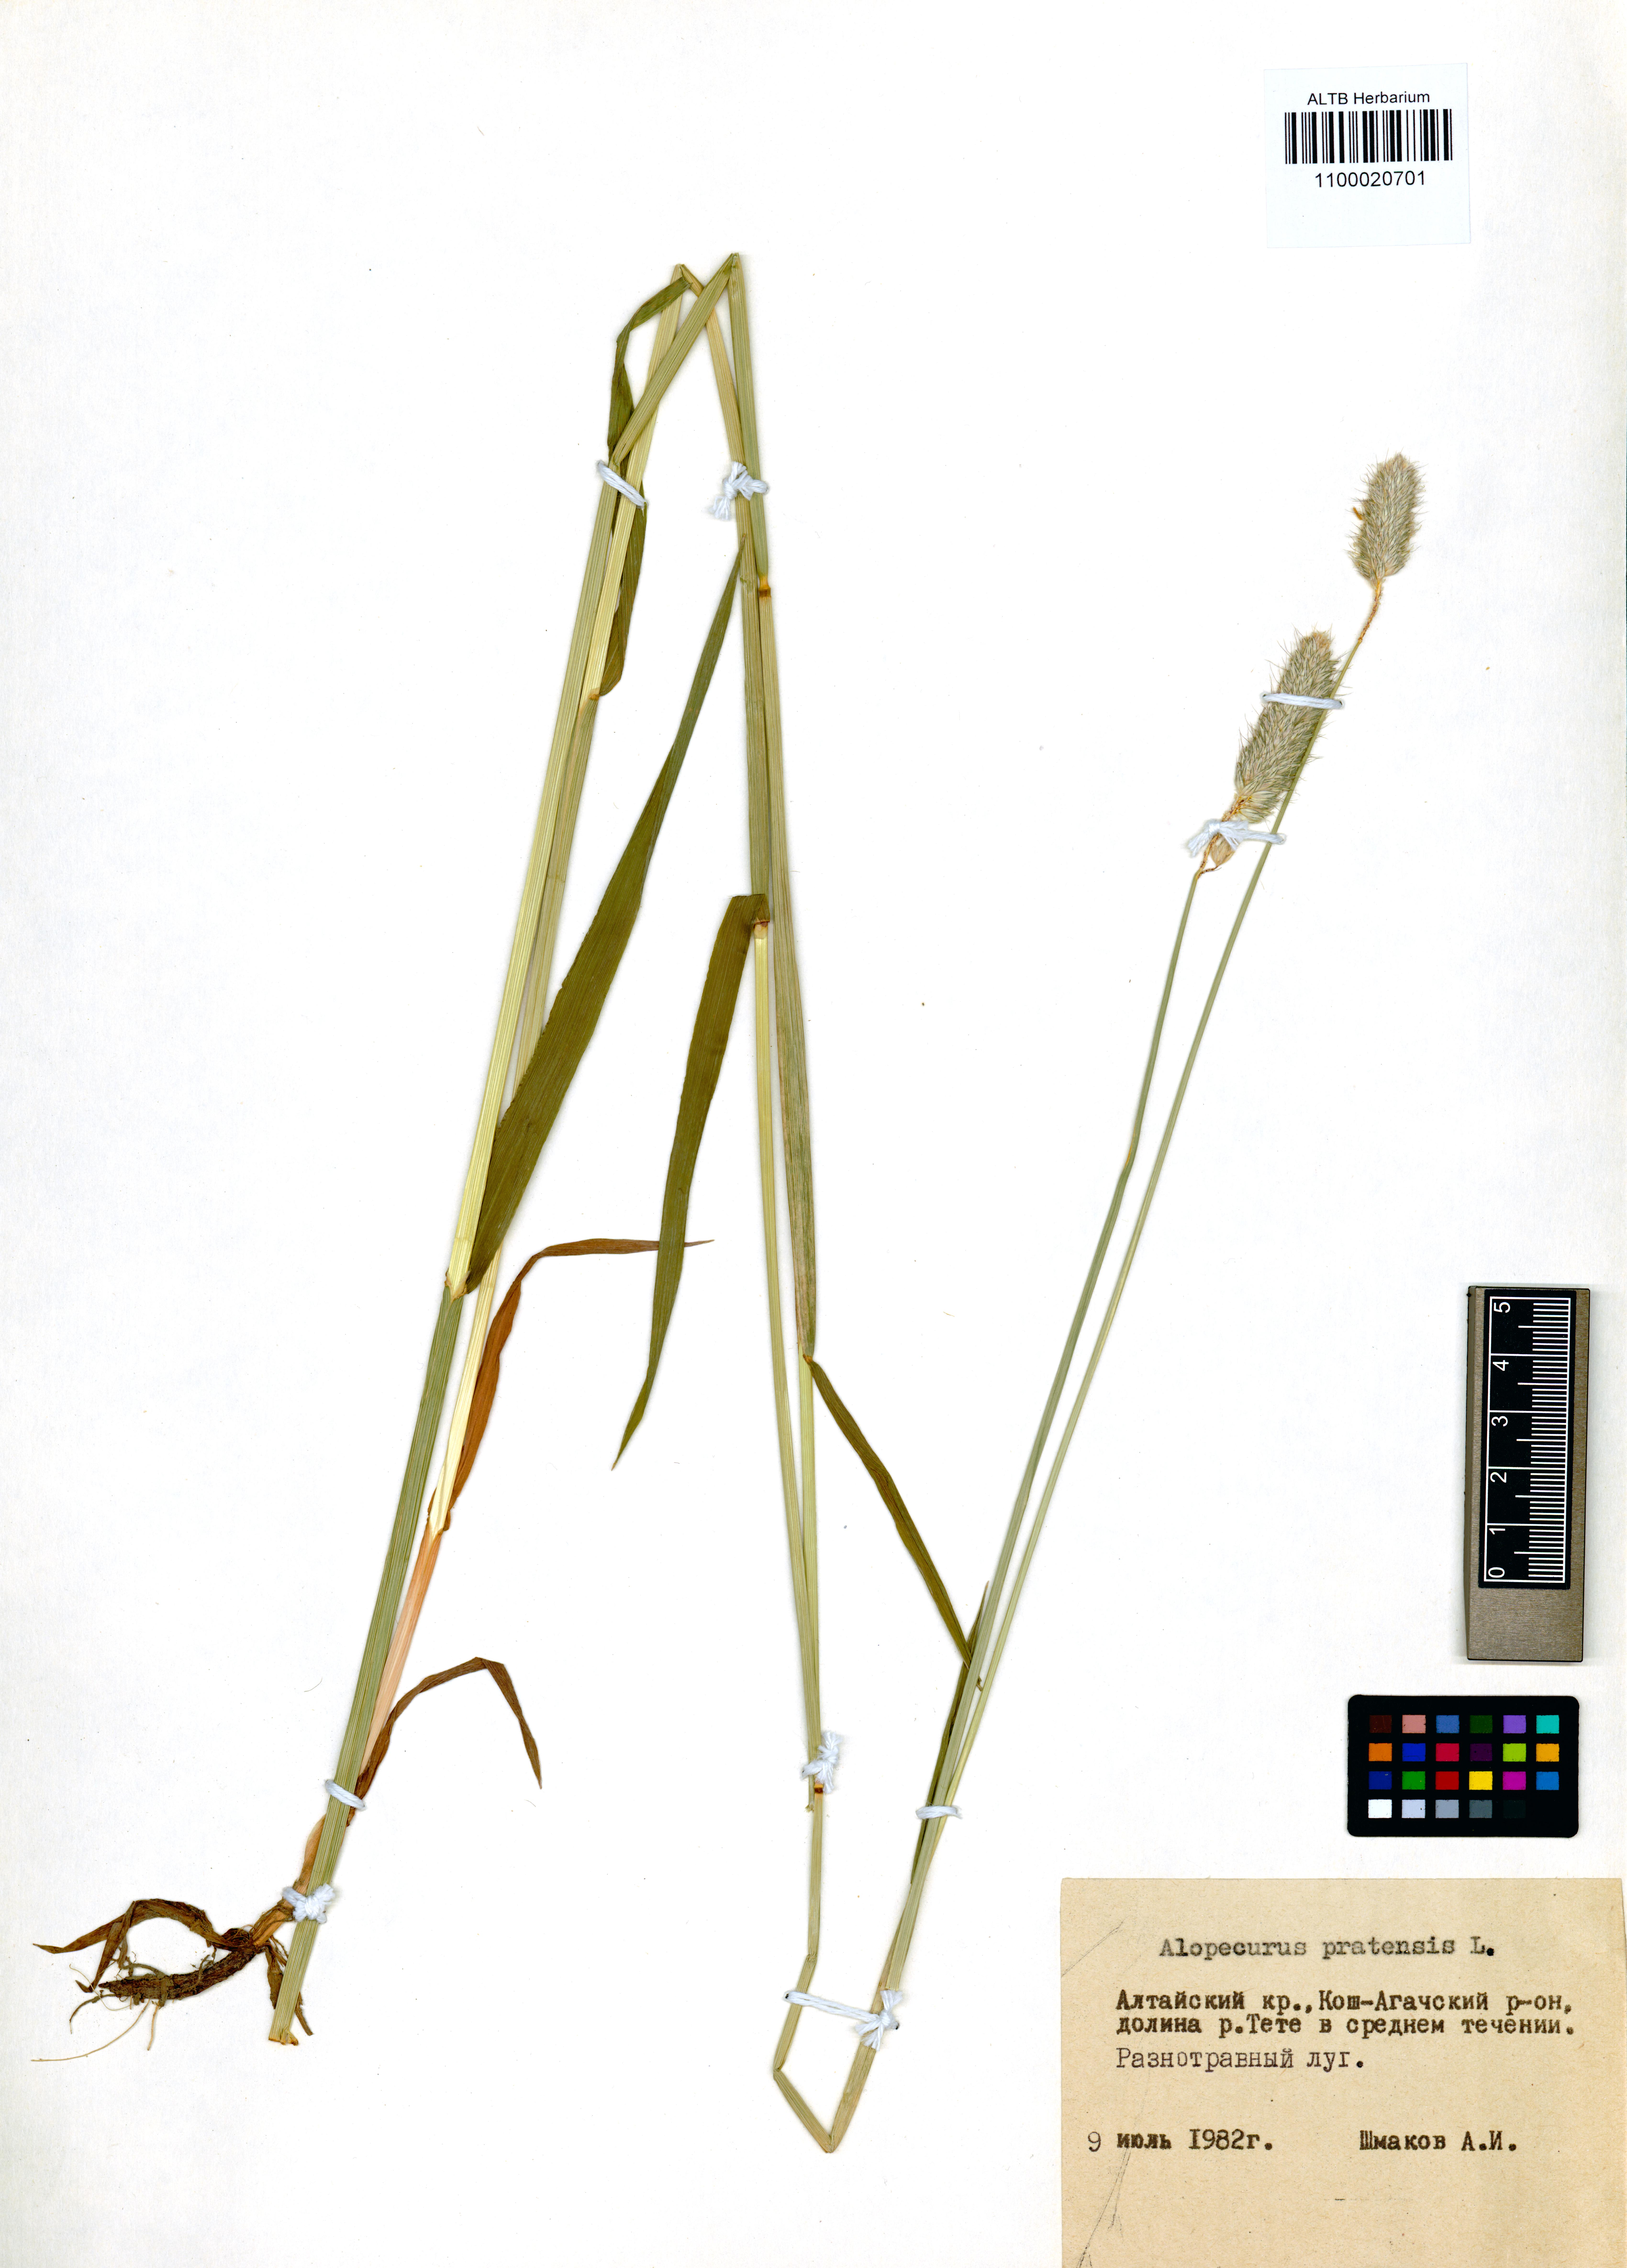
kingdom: Plantae
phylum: Tracheophyta
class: Liliopsida
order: Poales
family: Poaceae
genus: Alopecurus
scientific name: Alopecurus pratensis
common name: Meadow foxtail
